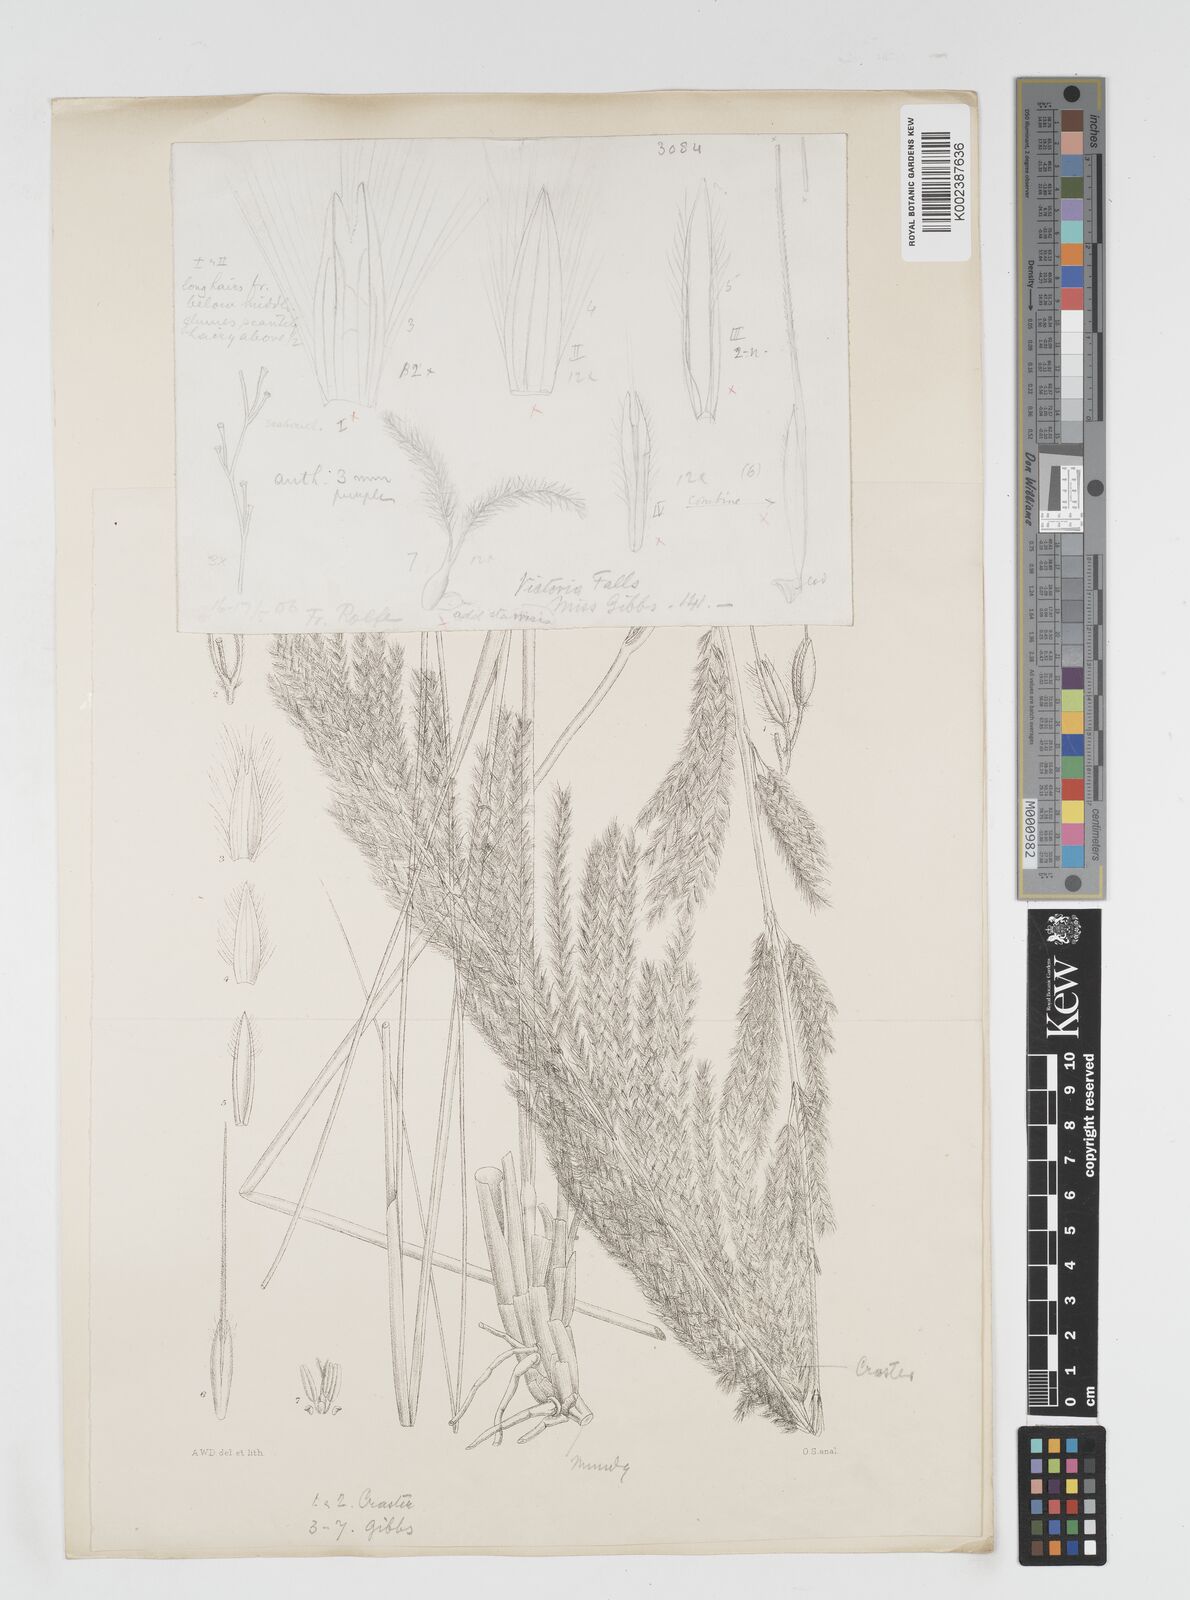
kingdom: Plantae
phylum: Tracheophyta
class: Liliopsida
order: Poales
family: Poaceae
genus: Miscanthidium
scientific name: Miscanthidium junceum
